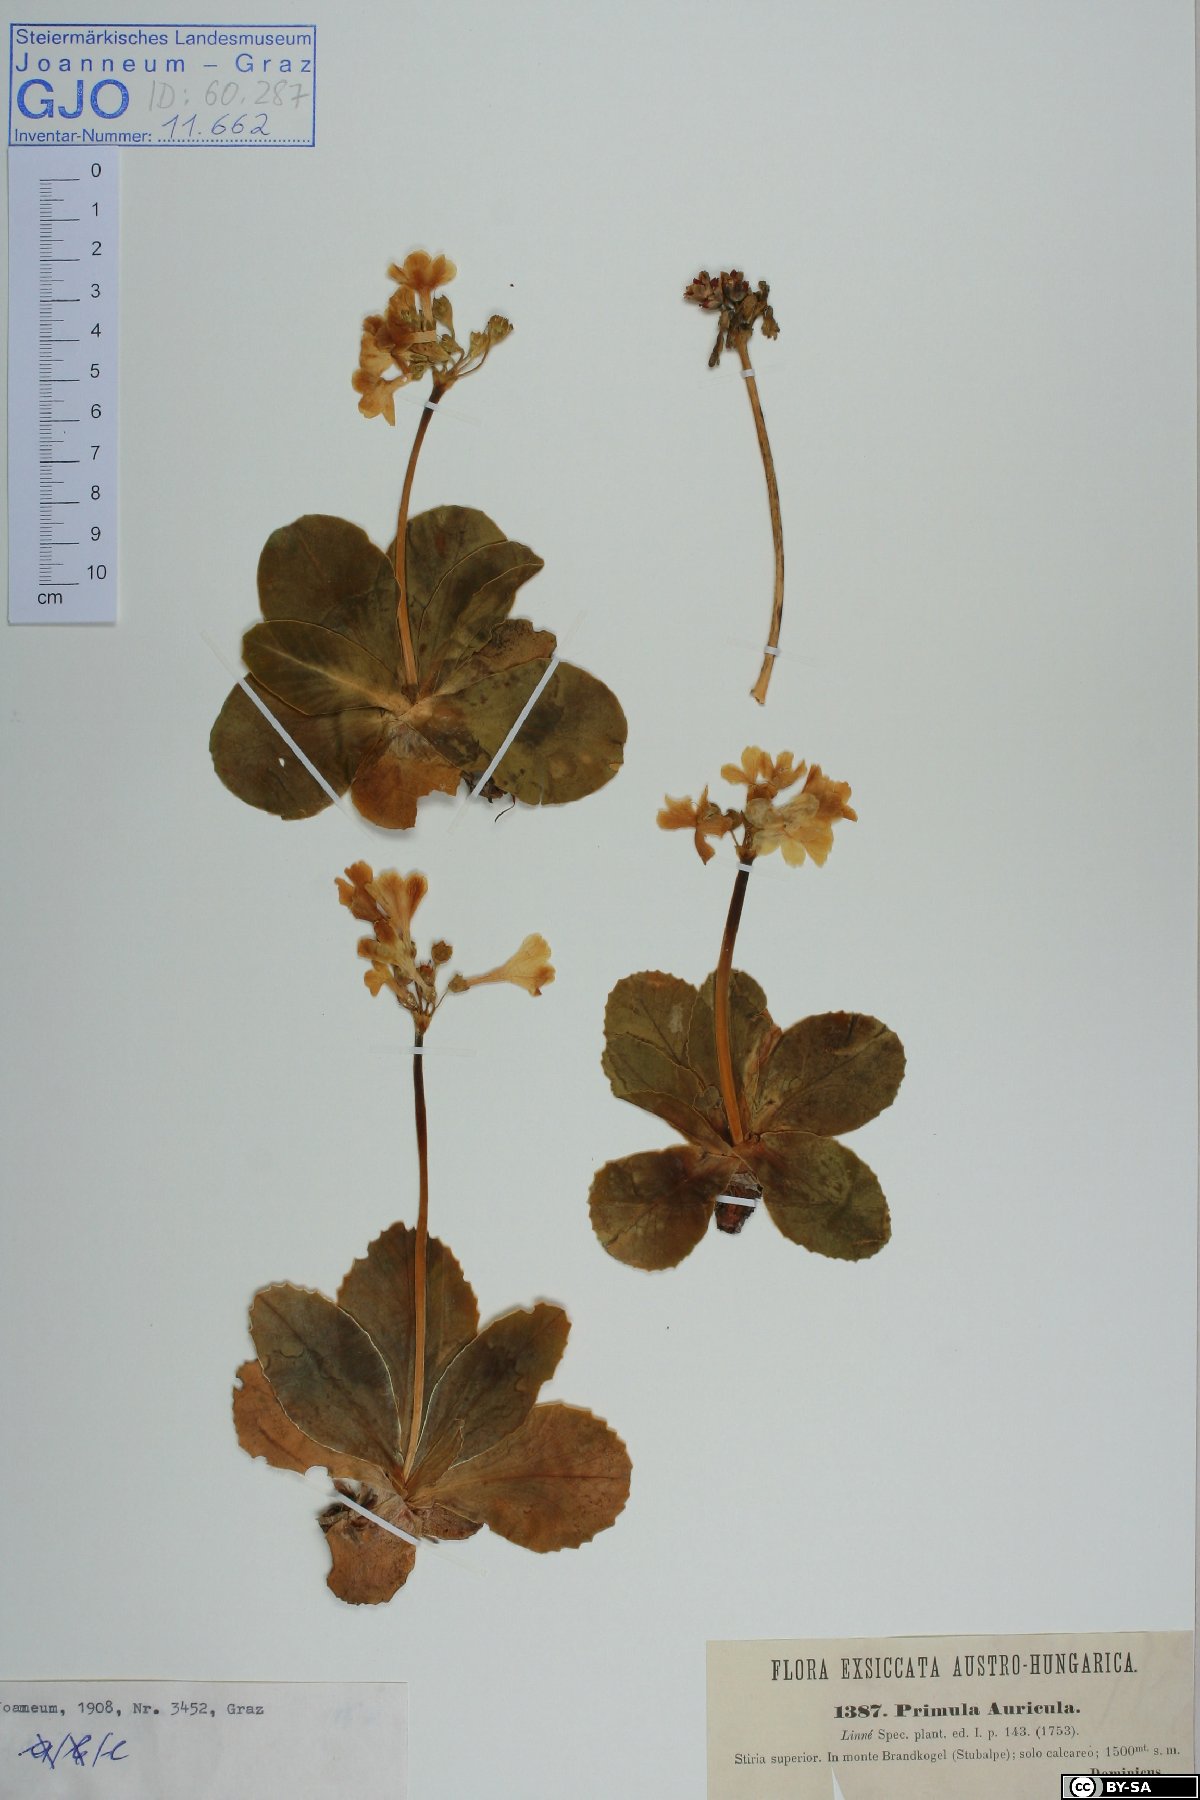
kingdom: Plantae
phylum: Tracheophyta
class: Magnoliopsida
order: Ericales
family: Primulaceae
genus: Primula
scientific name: Primula auricula
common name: Auricula
